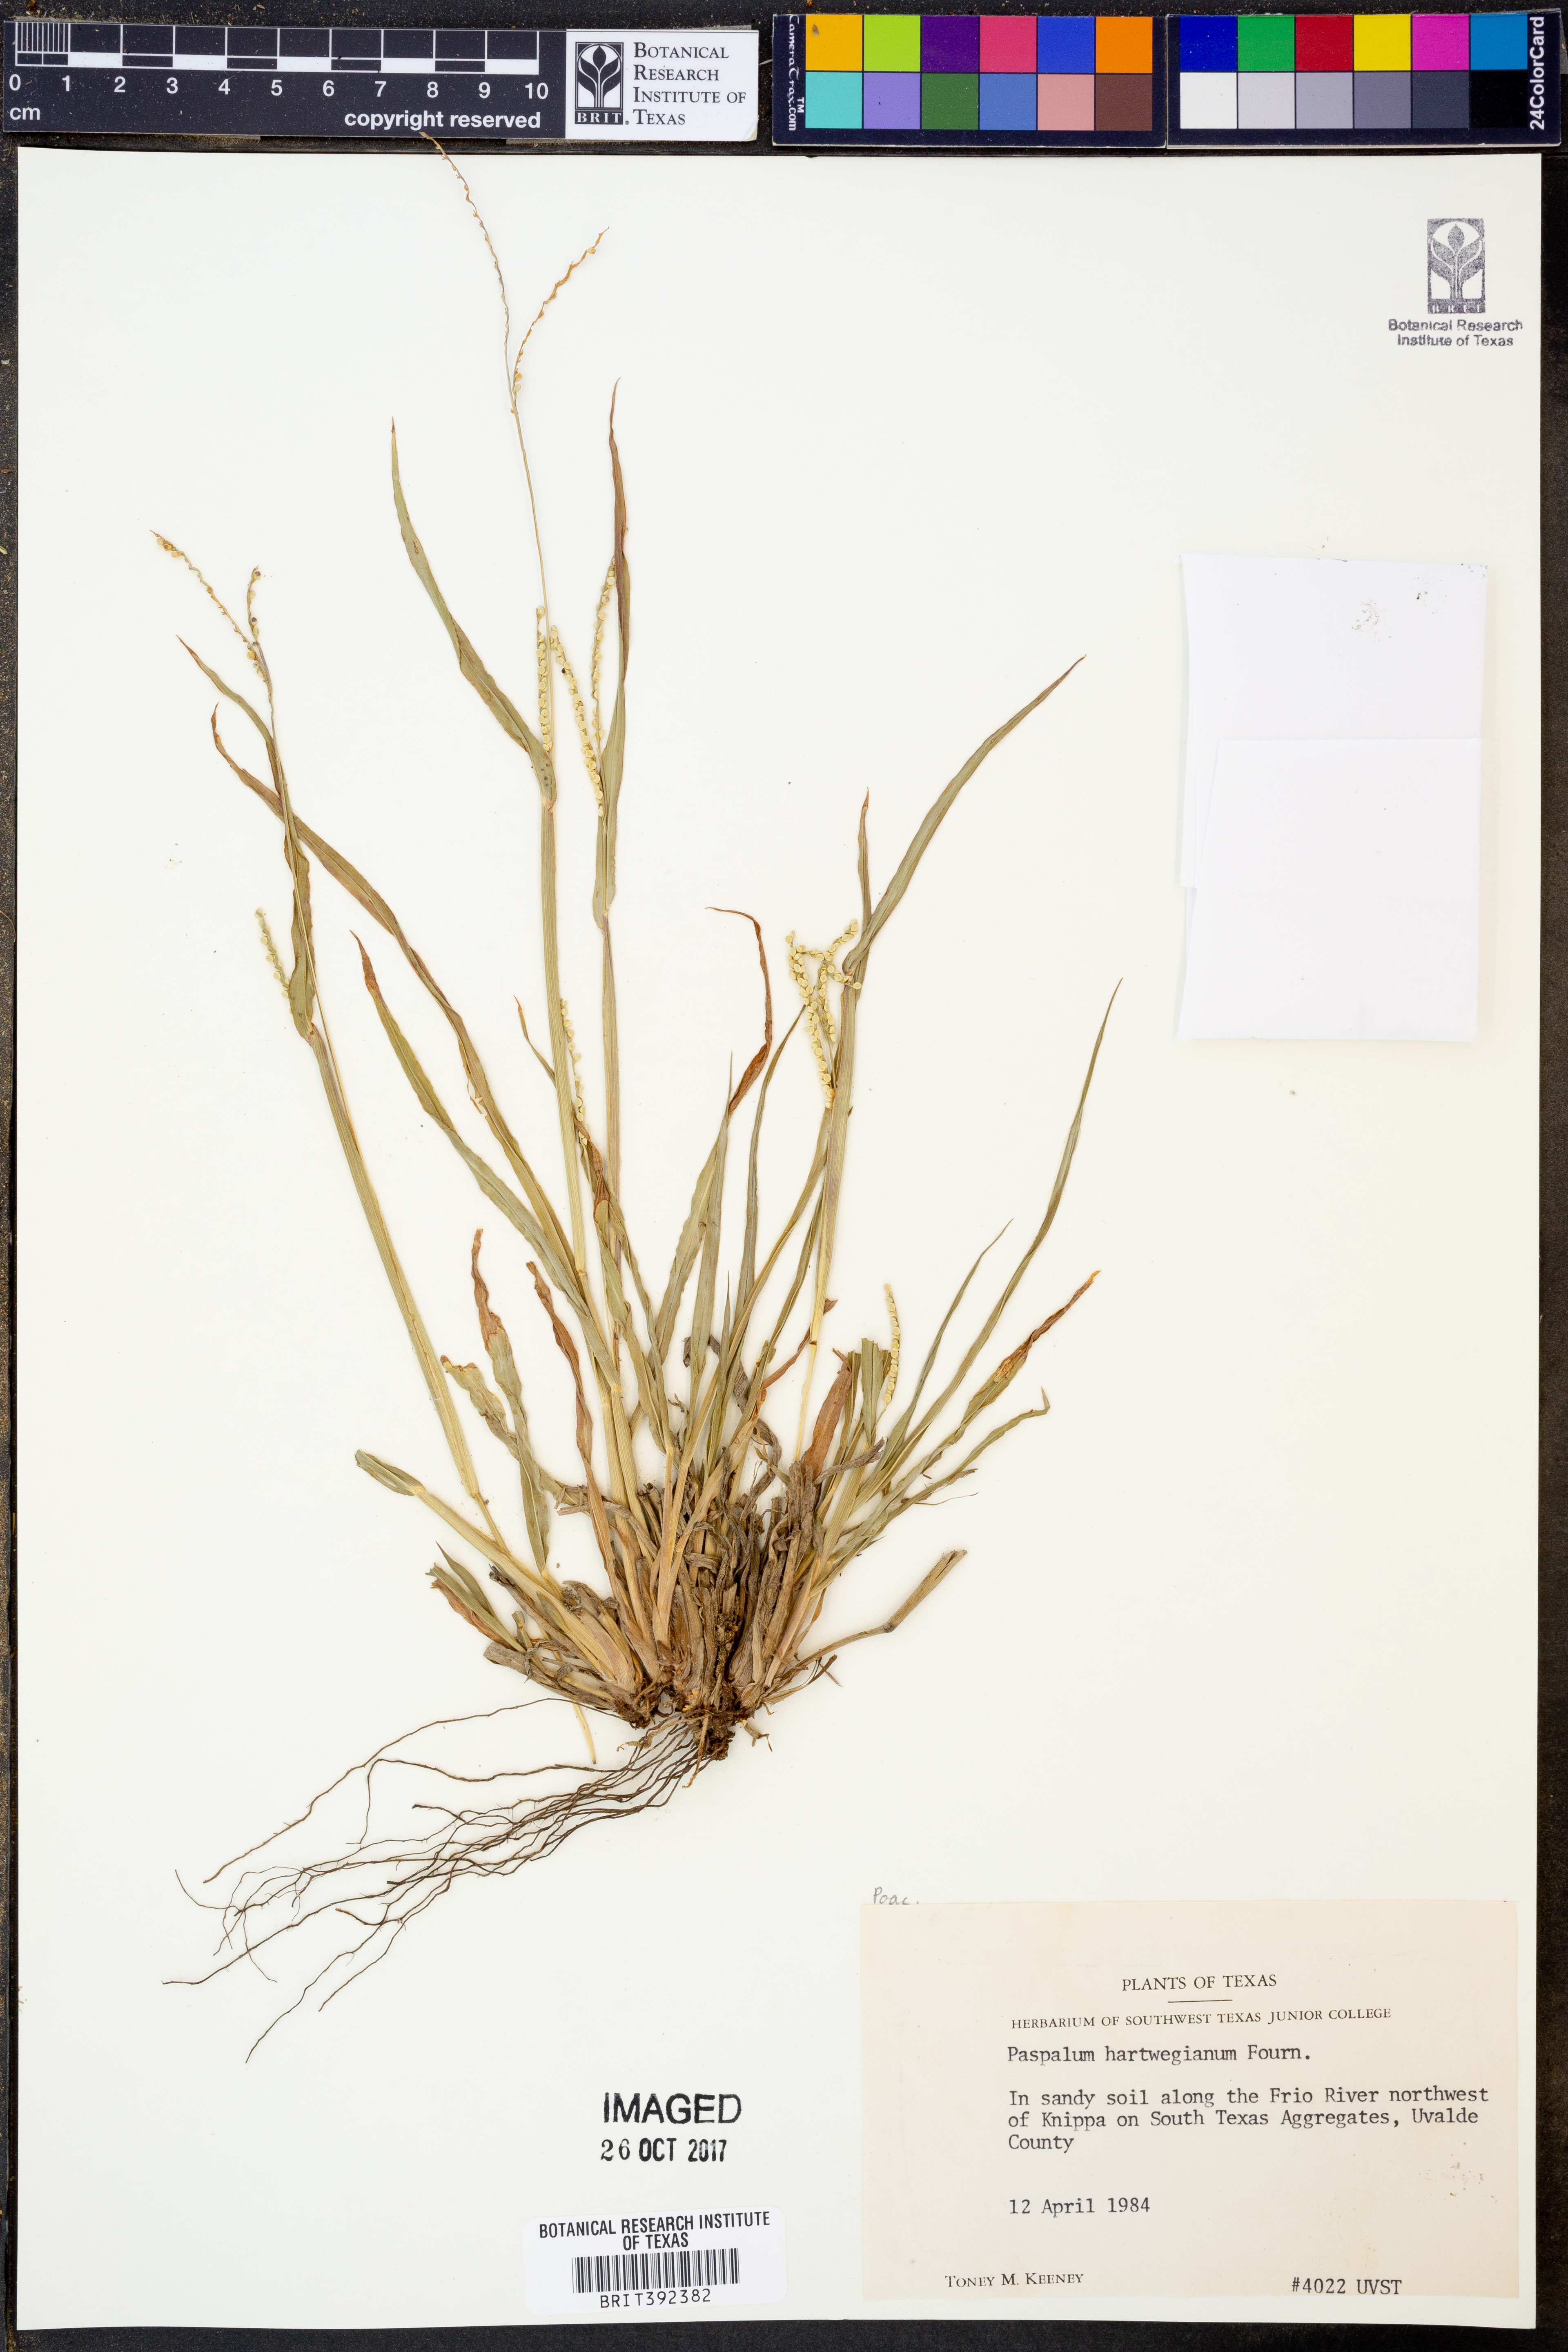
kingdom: Plantae
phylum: Tracheophyta
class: Liliopsida
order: Poales
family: Poaceae
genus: Paspalum
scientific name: Paspalum hartwegianum
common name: Hartweg's paspalum
